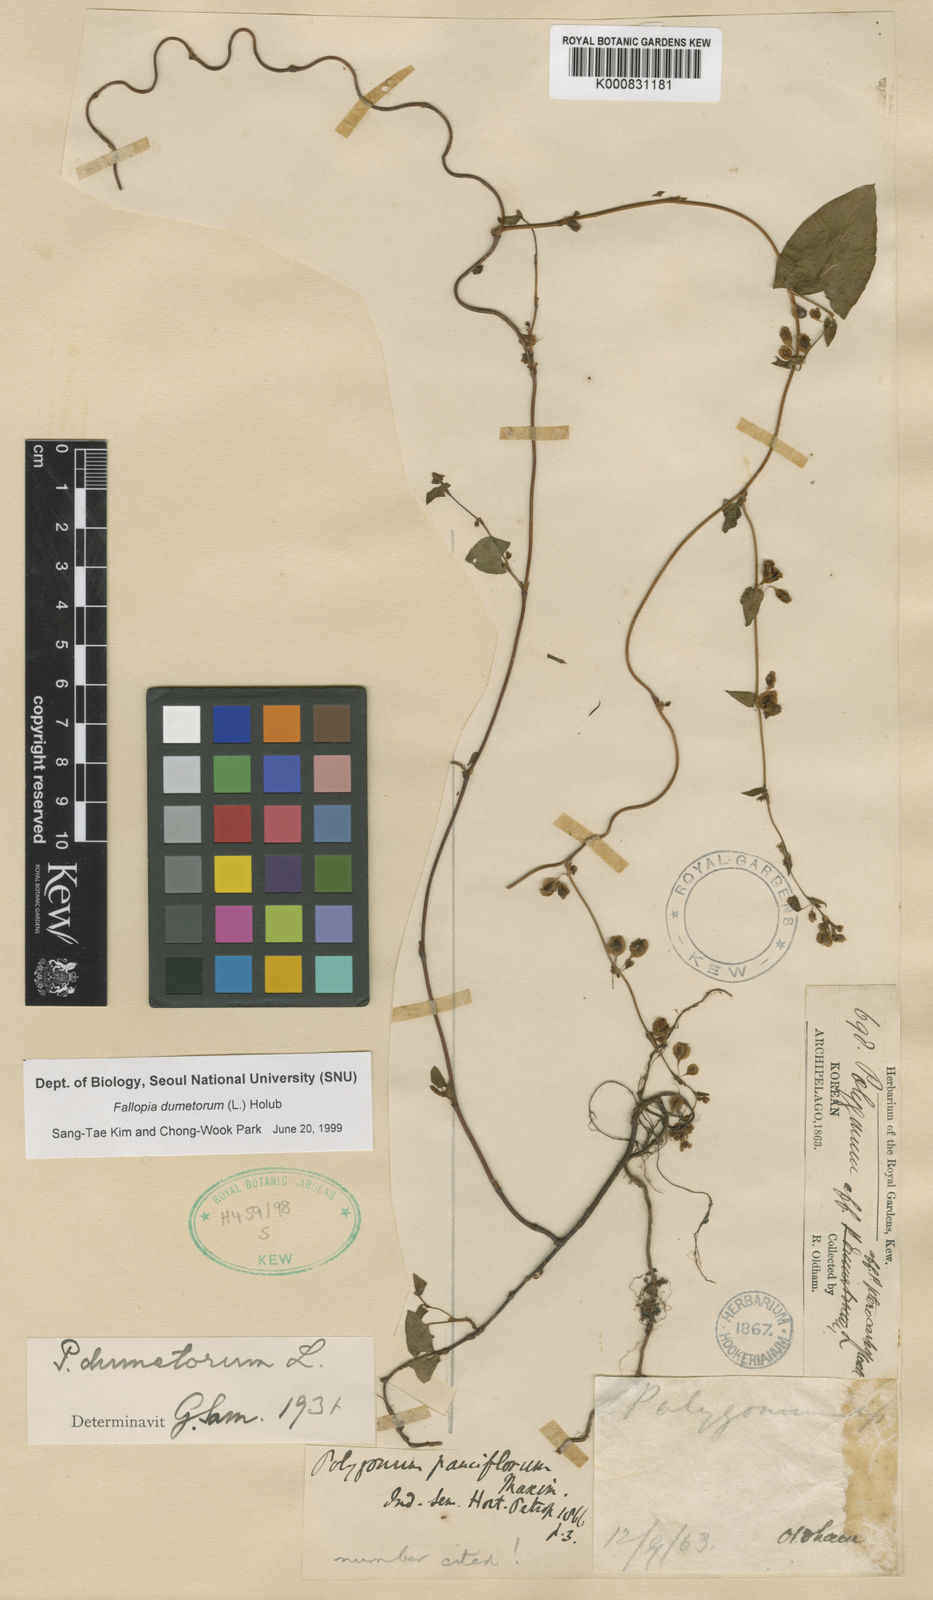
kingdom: Plantae
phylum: Tracheophyta
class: Magnoliopsida
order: Caryophyllales
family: Polygonaceae
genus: Fallopia
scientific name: Fallopia dumetorum
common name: Copse-bindweed
